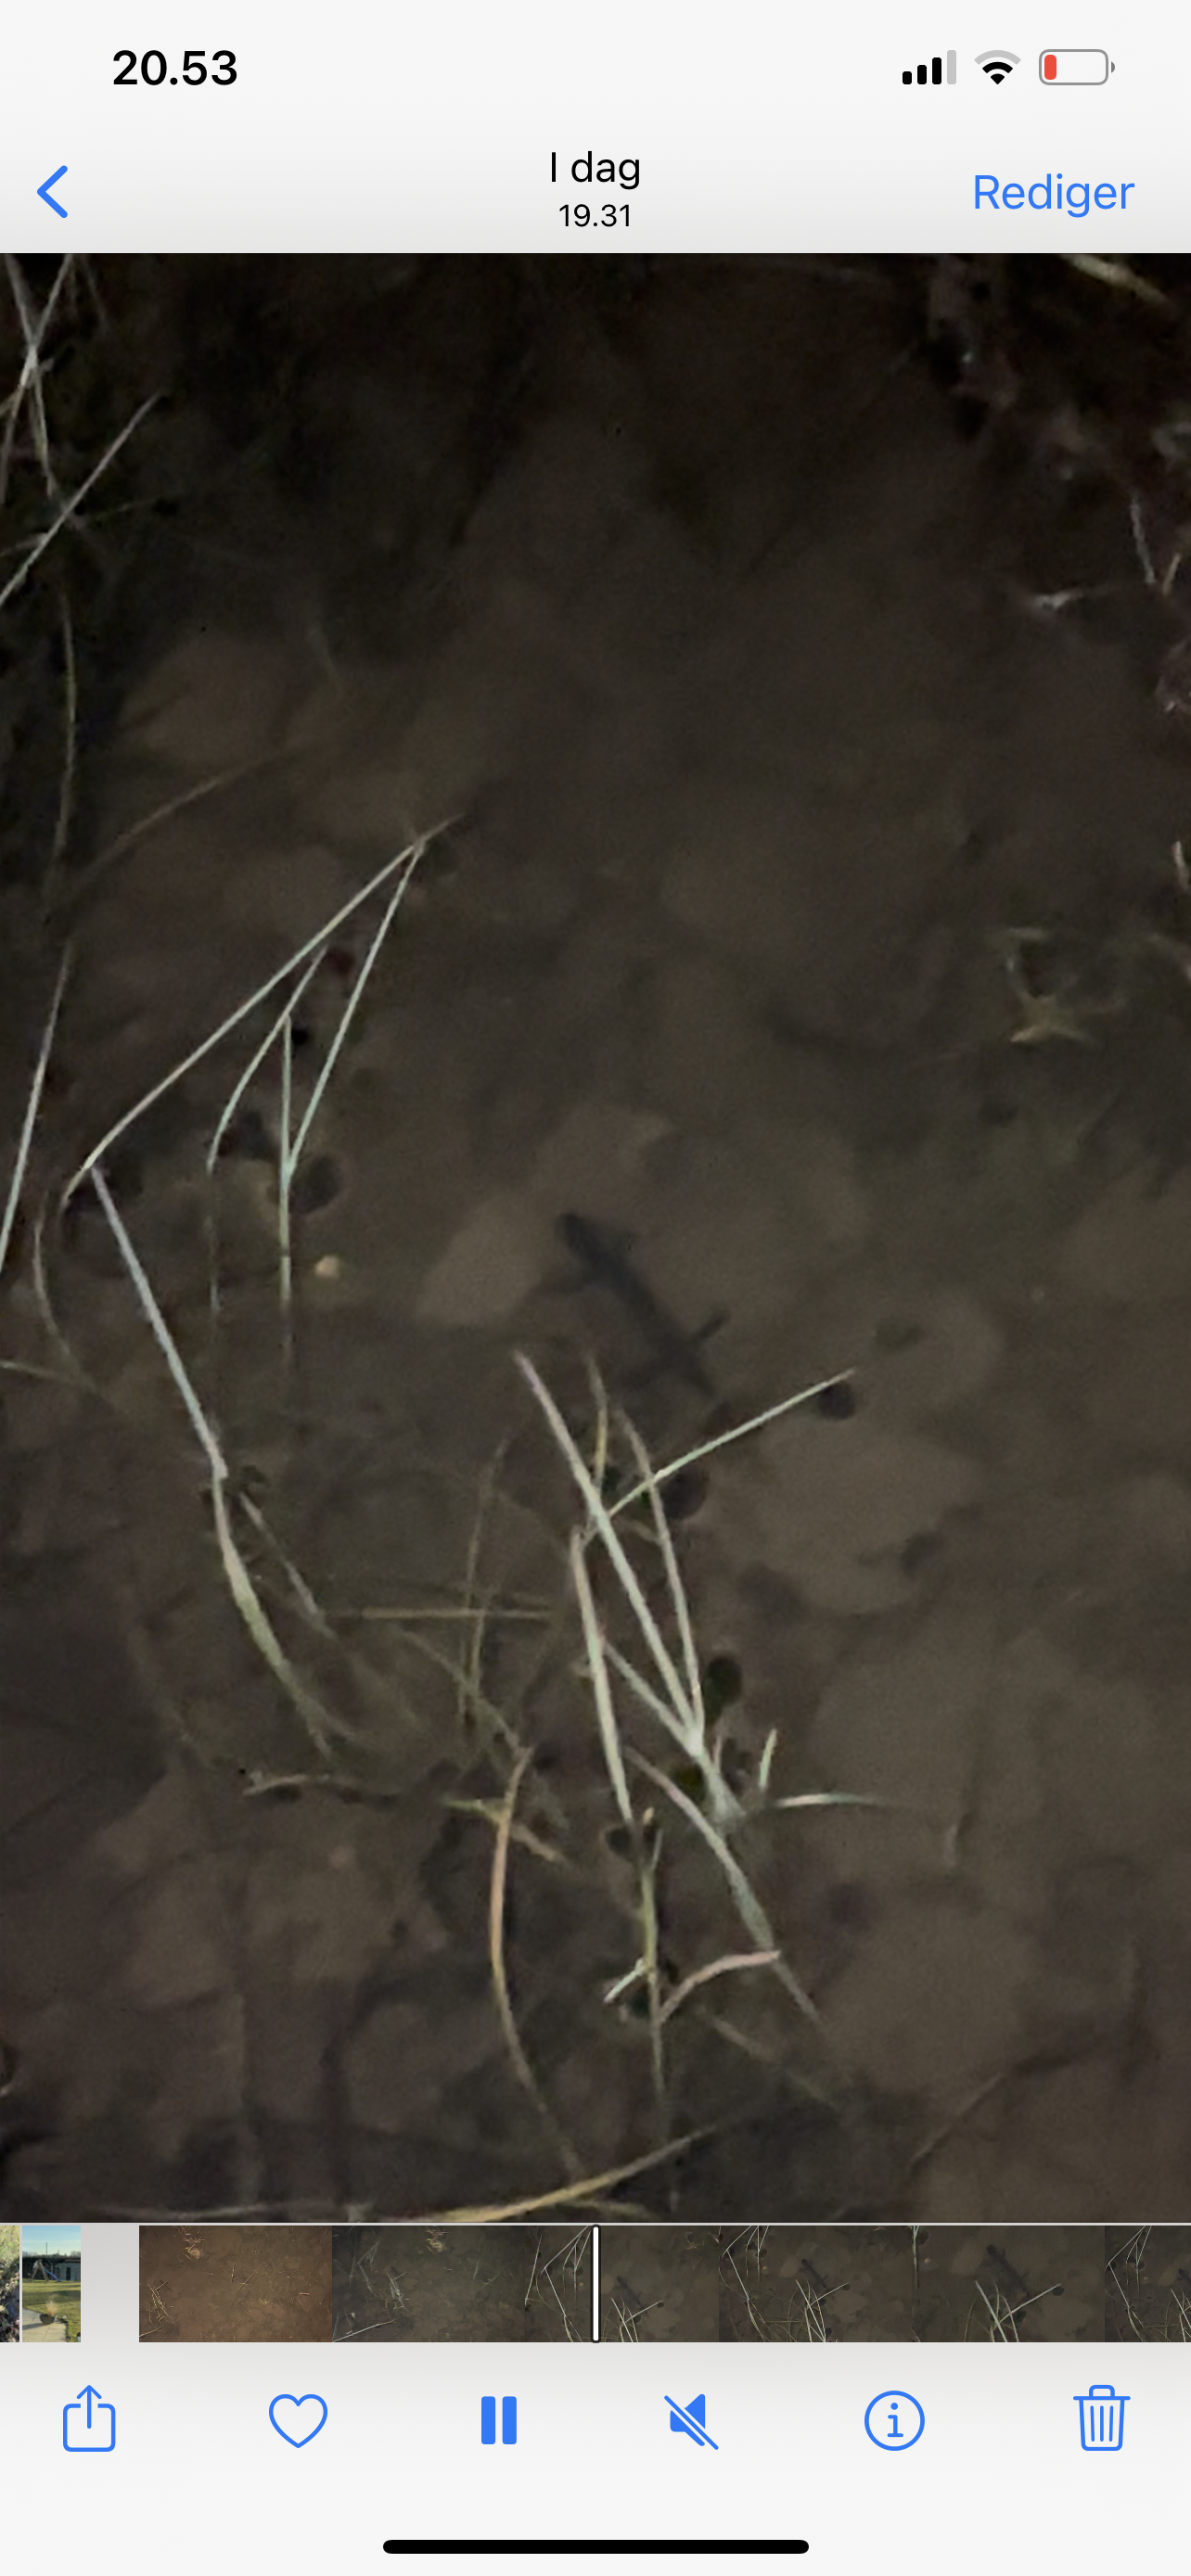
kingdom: Animalia
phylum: Chordata
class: Amphibia
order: Caudata
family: Salamandridae
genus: Triturus
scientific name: Triturus cristatus
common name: Stor vandsalamander
